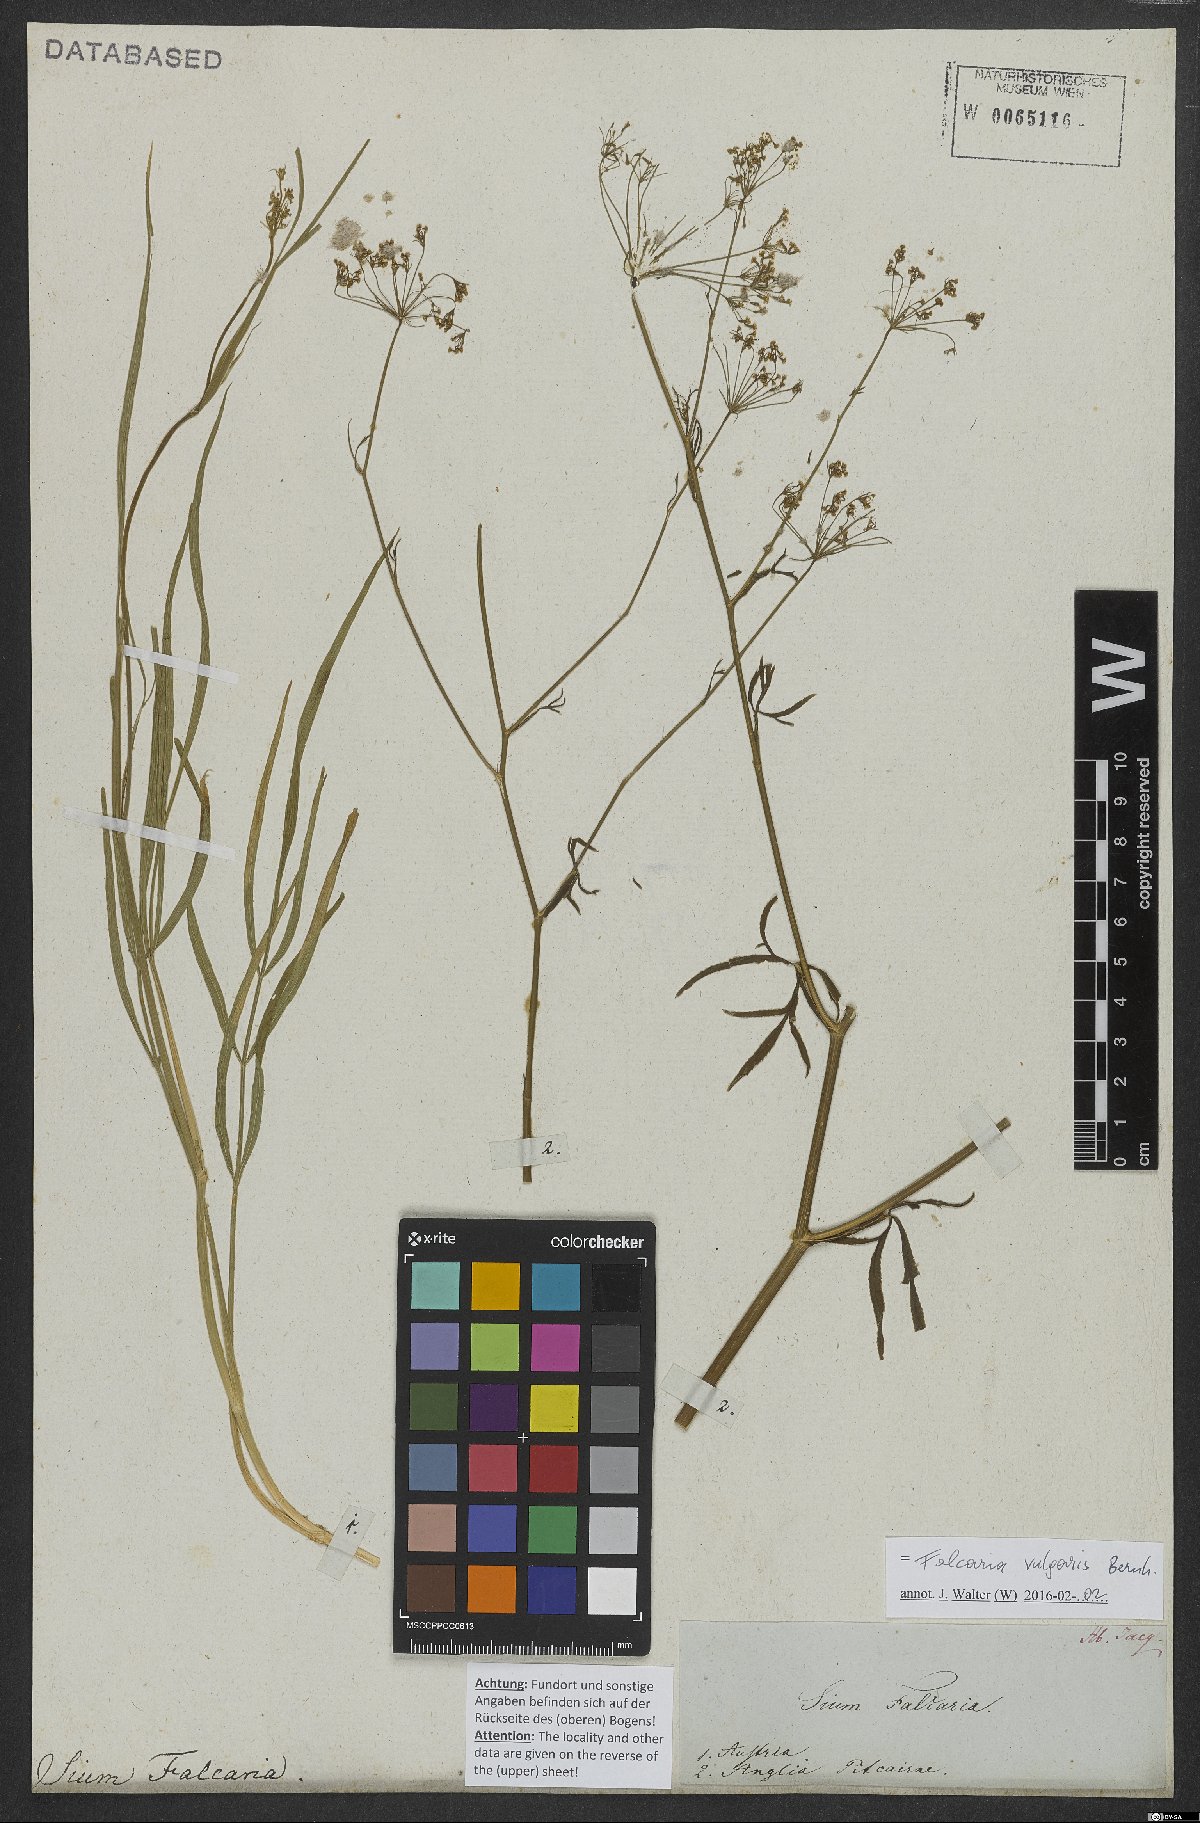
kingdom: Plantae
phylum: Tracheophyta
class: Magnoliopsida
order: Apiales
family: Apiaceae
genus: Falcaria
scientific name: Falcaria vulgaris
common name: Longleaf
